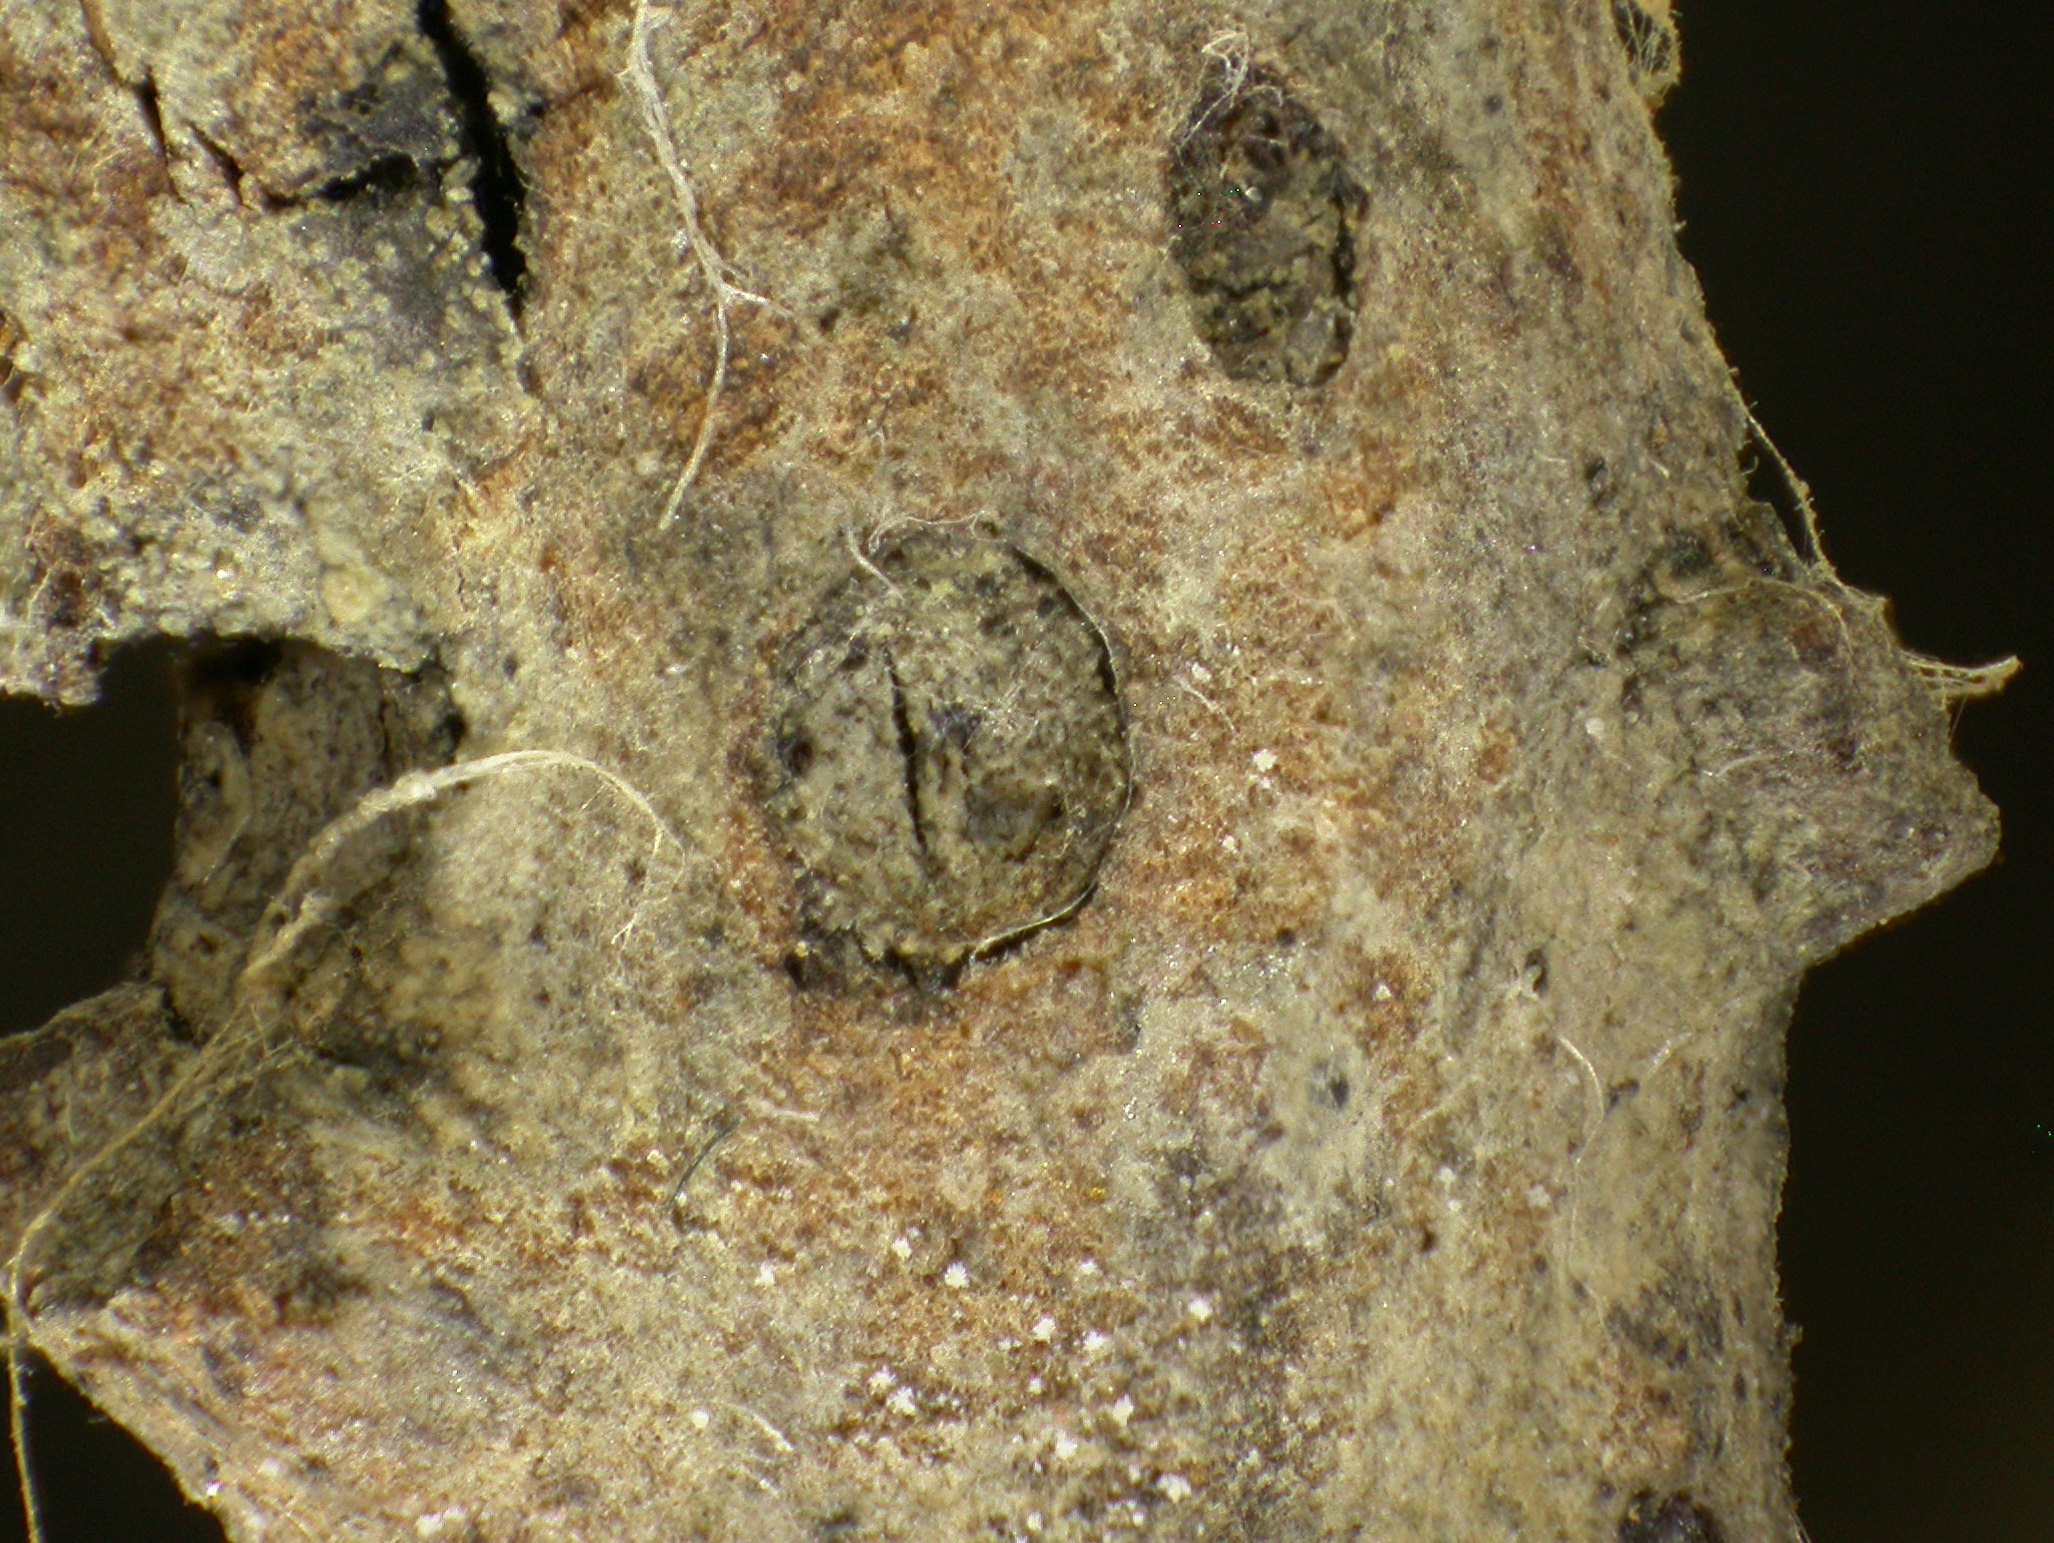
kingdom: Fungi
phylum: Ascomycota
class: Dothideomycetes
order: Pleosporales
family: Didymosphaeriaceae
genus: Didymosphaeria
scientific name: Didymosphaeria rhois
